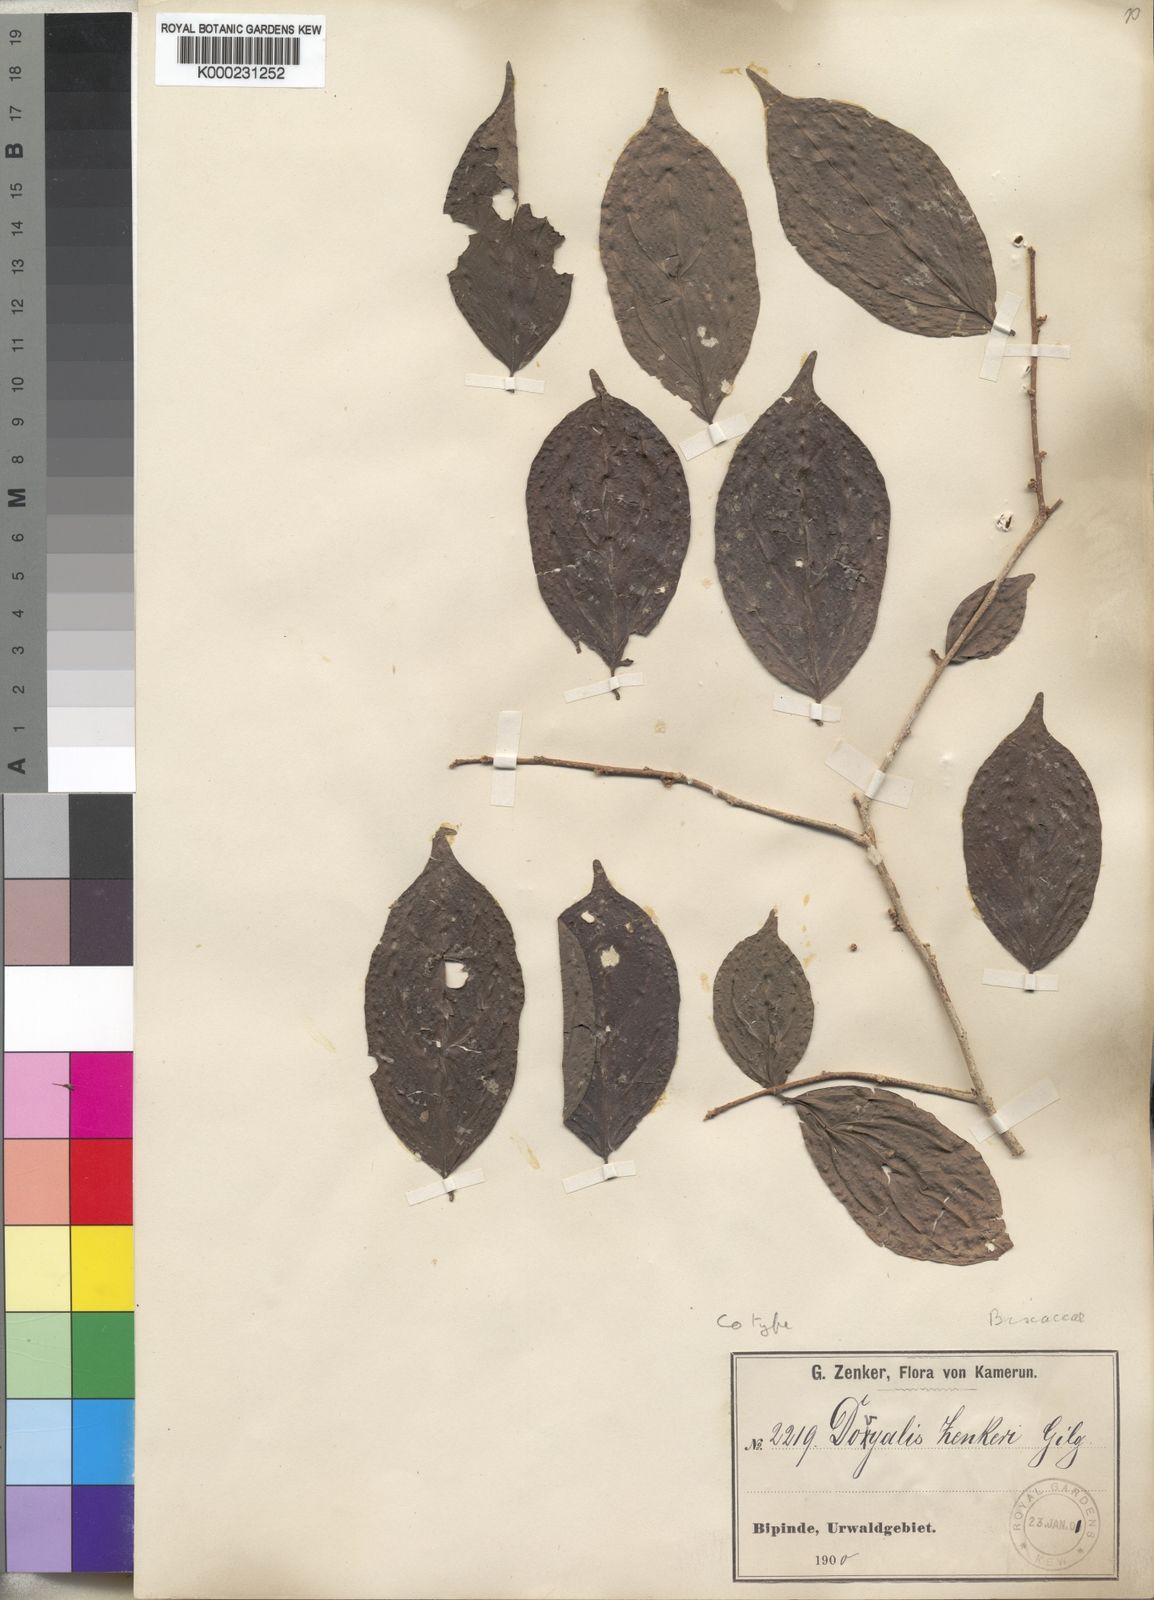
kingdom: Plantae
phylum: Tracheophyta
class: Magnoliopsida
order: Malpighiales
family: Salicaceae
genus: Dovyalis
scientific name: Dovyalis zenkeri
